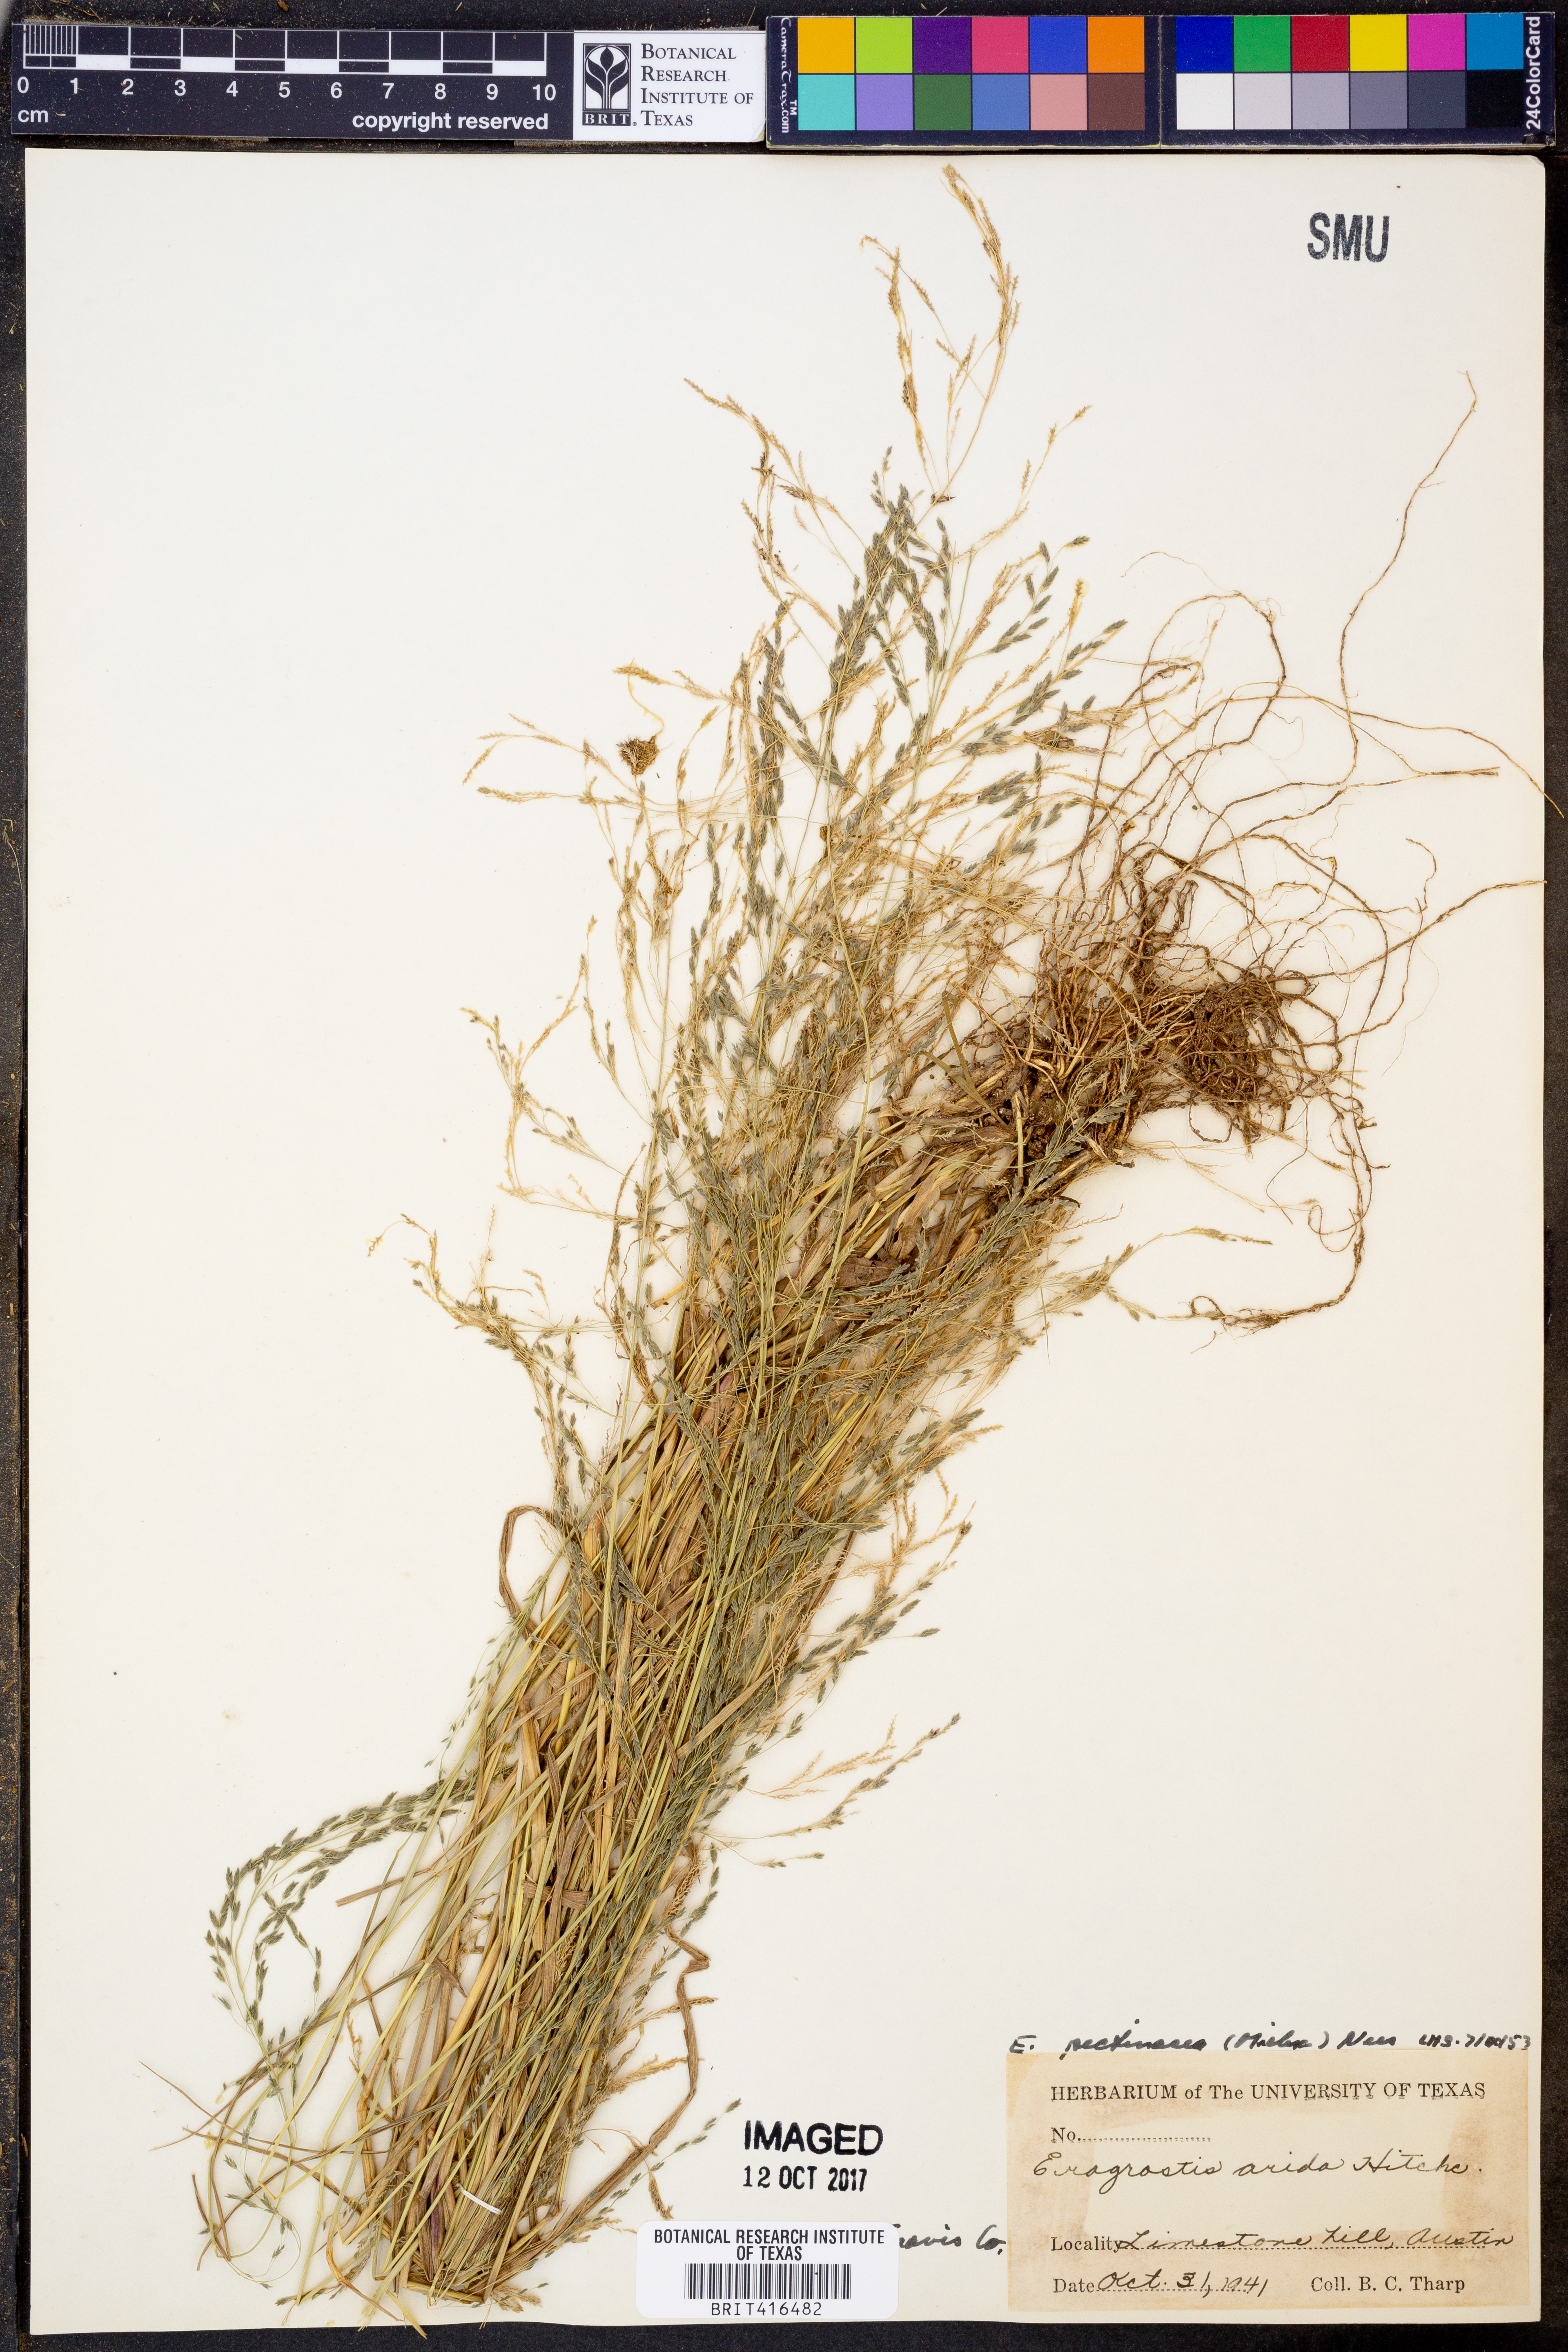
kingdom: Plantae
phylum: Tracheophyta
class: Liliopsida
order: Poales
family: Poaceae
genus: Eragrostis
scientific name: Eragrostis pectinacea
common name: Tufted lovegrass
